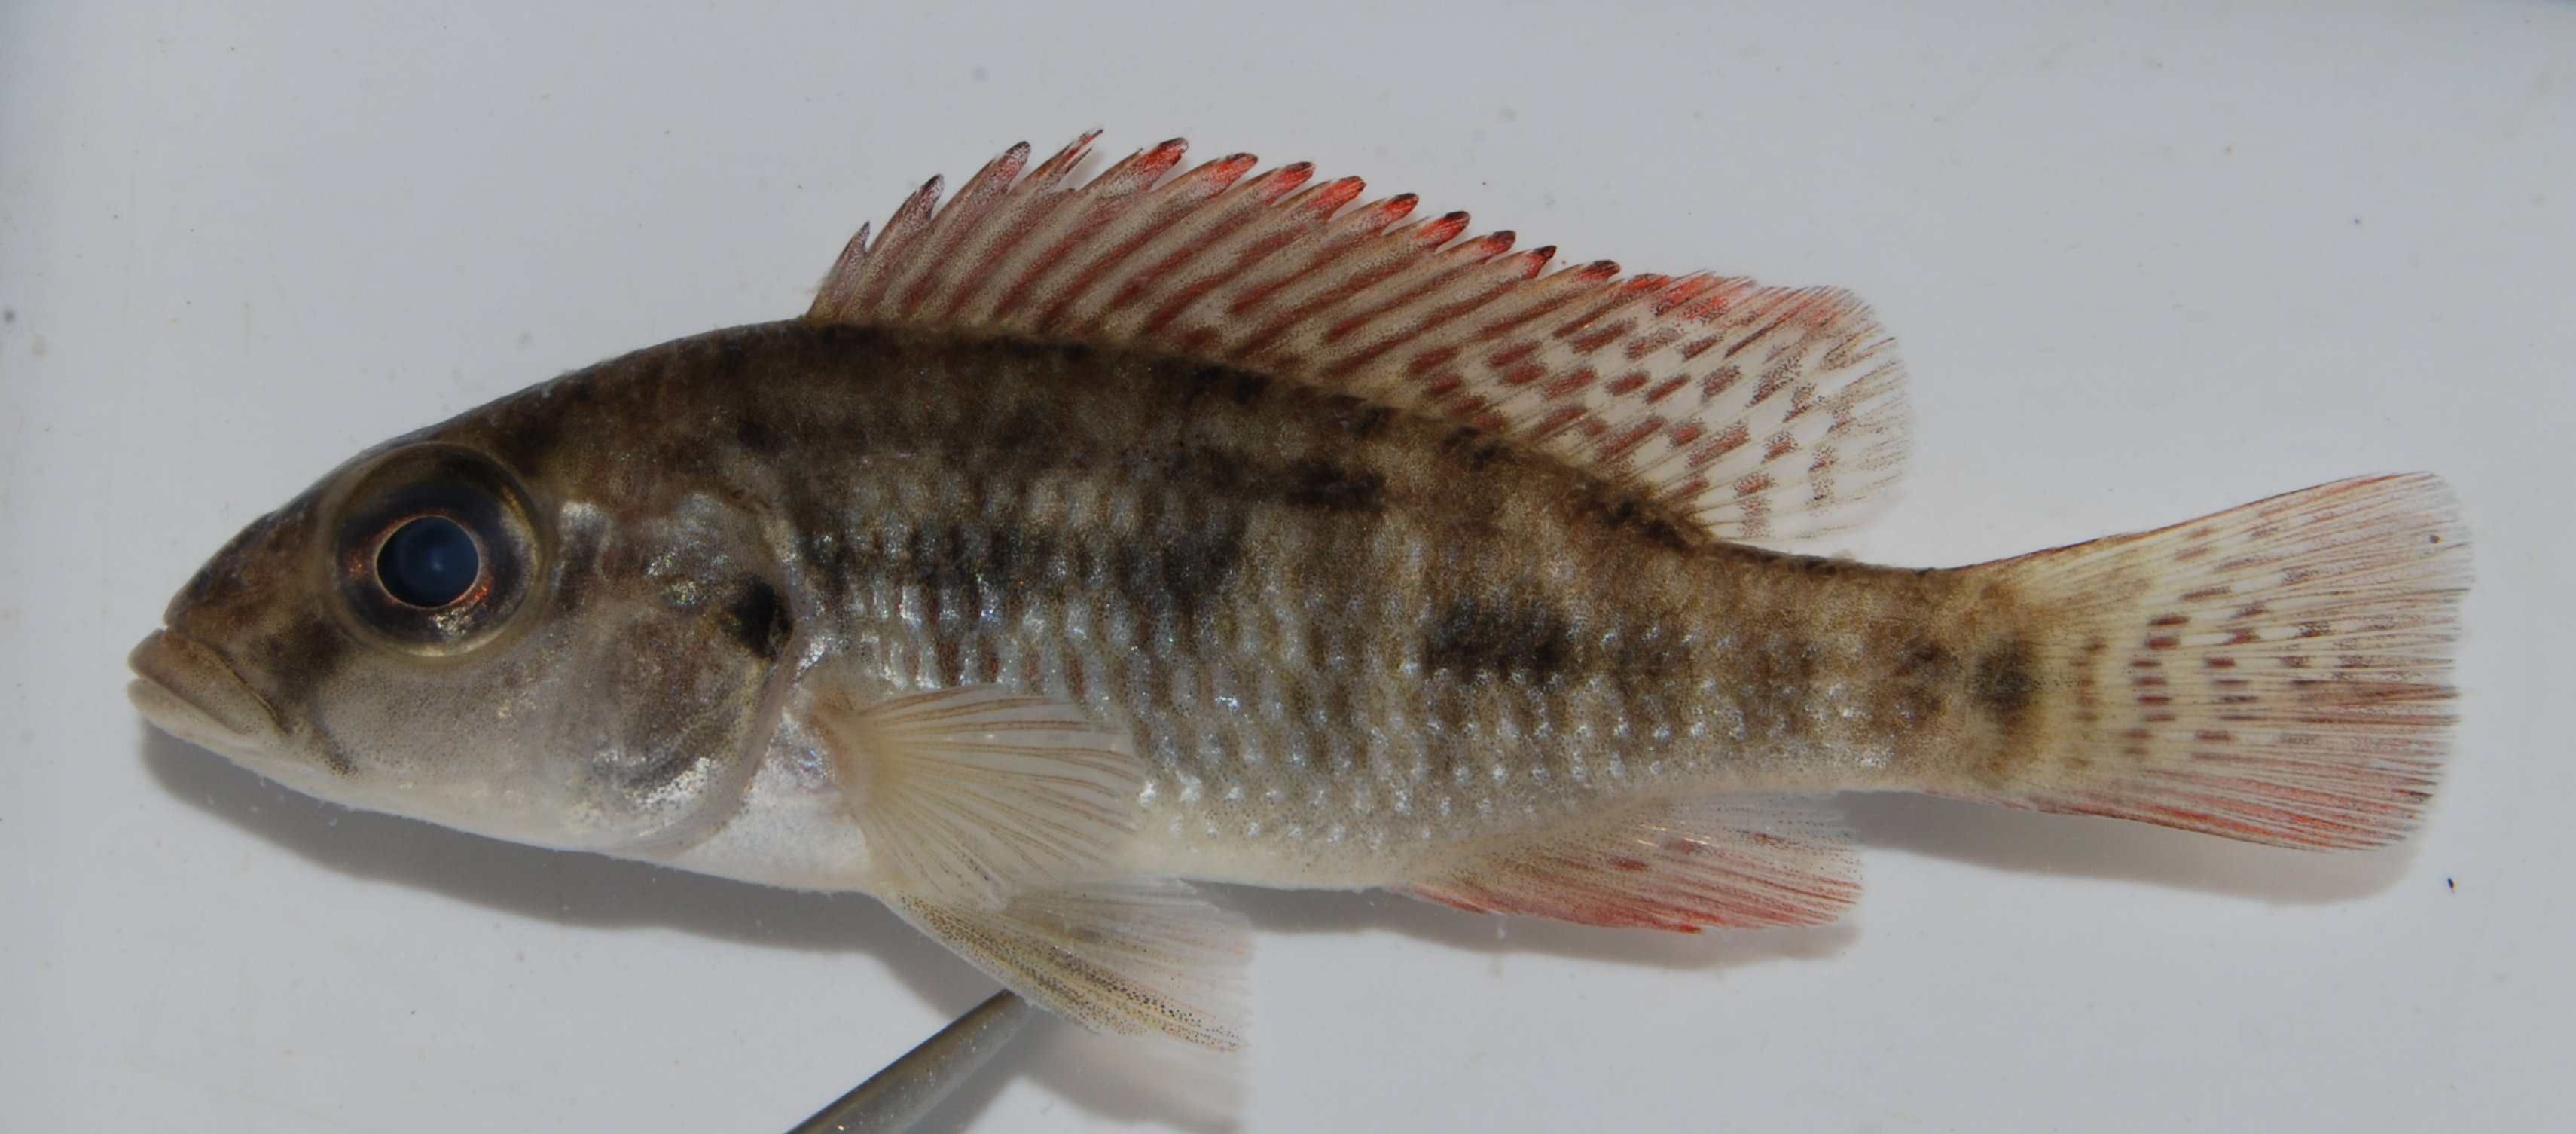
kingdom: Animalia
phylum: Chordata
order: Perciformes
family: Cichlidae
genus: Sargochromis
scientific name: Sargochromis
